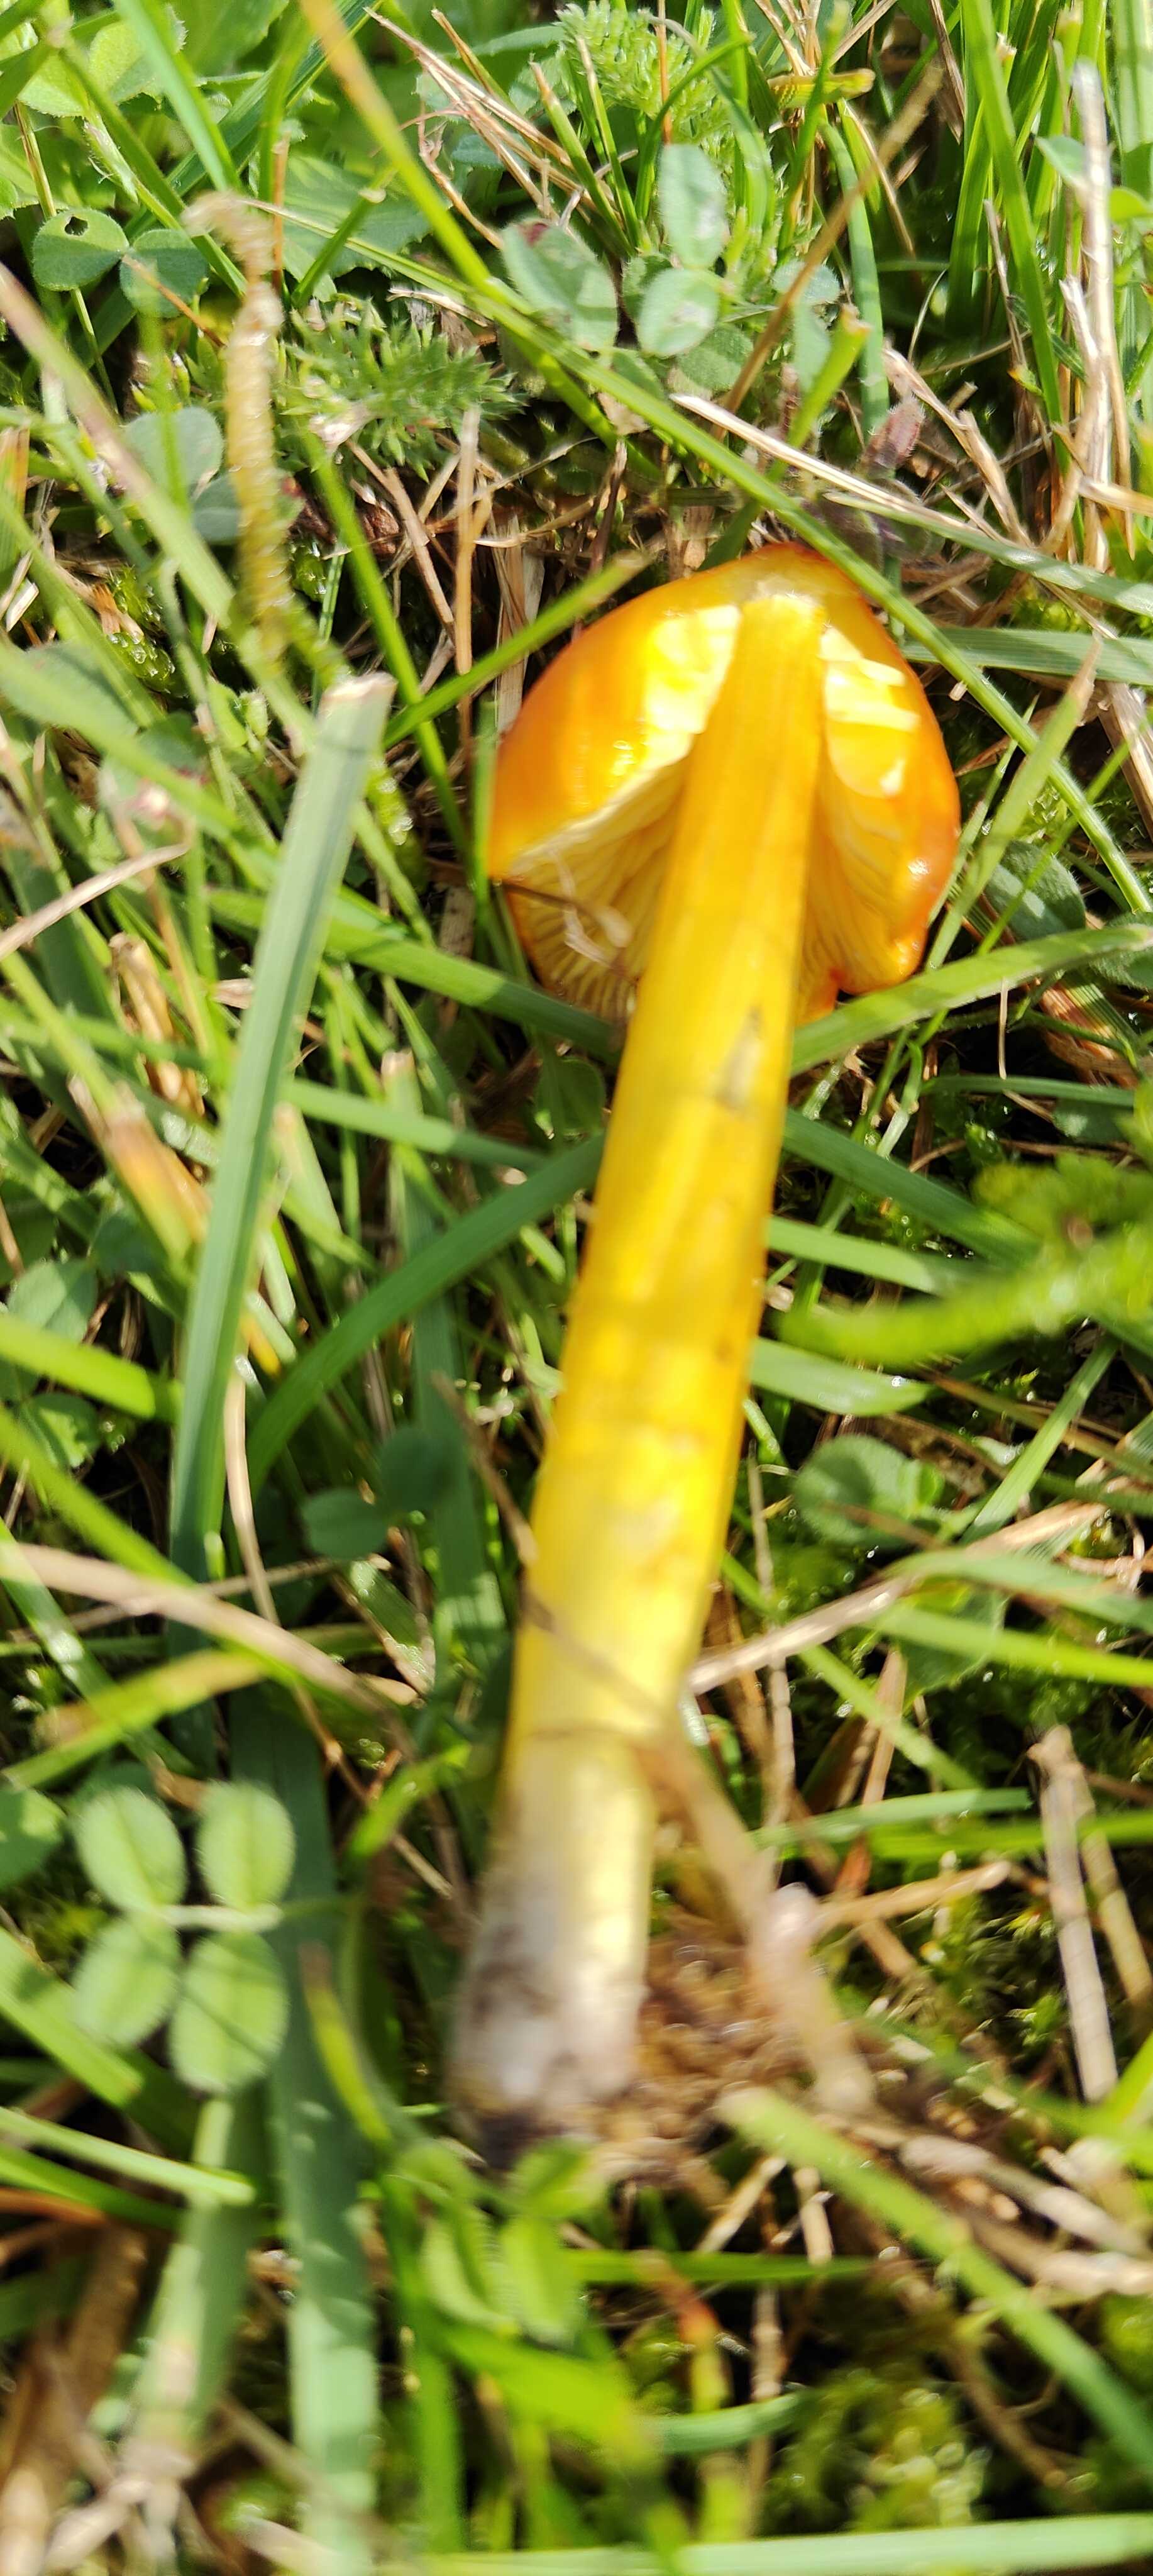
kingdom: Fungi
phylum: Basidiomycota
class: Agaricomycetes
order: Agaricales
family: Hygrophoraceae
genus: Hygrocybe
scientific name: Hygrocybe conica
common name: kegle-vokshat
